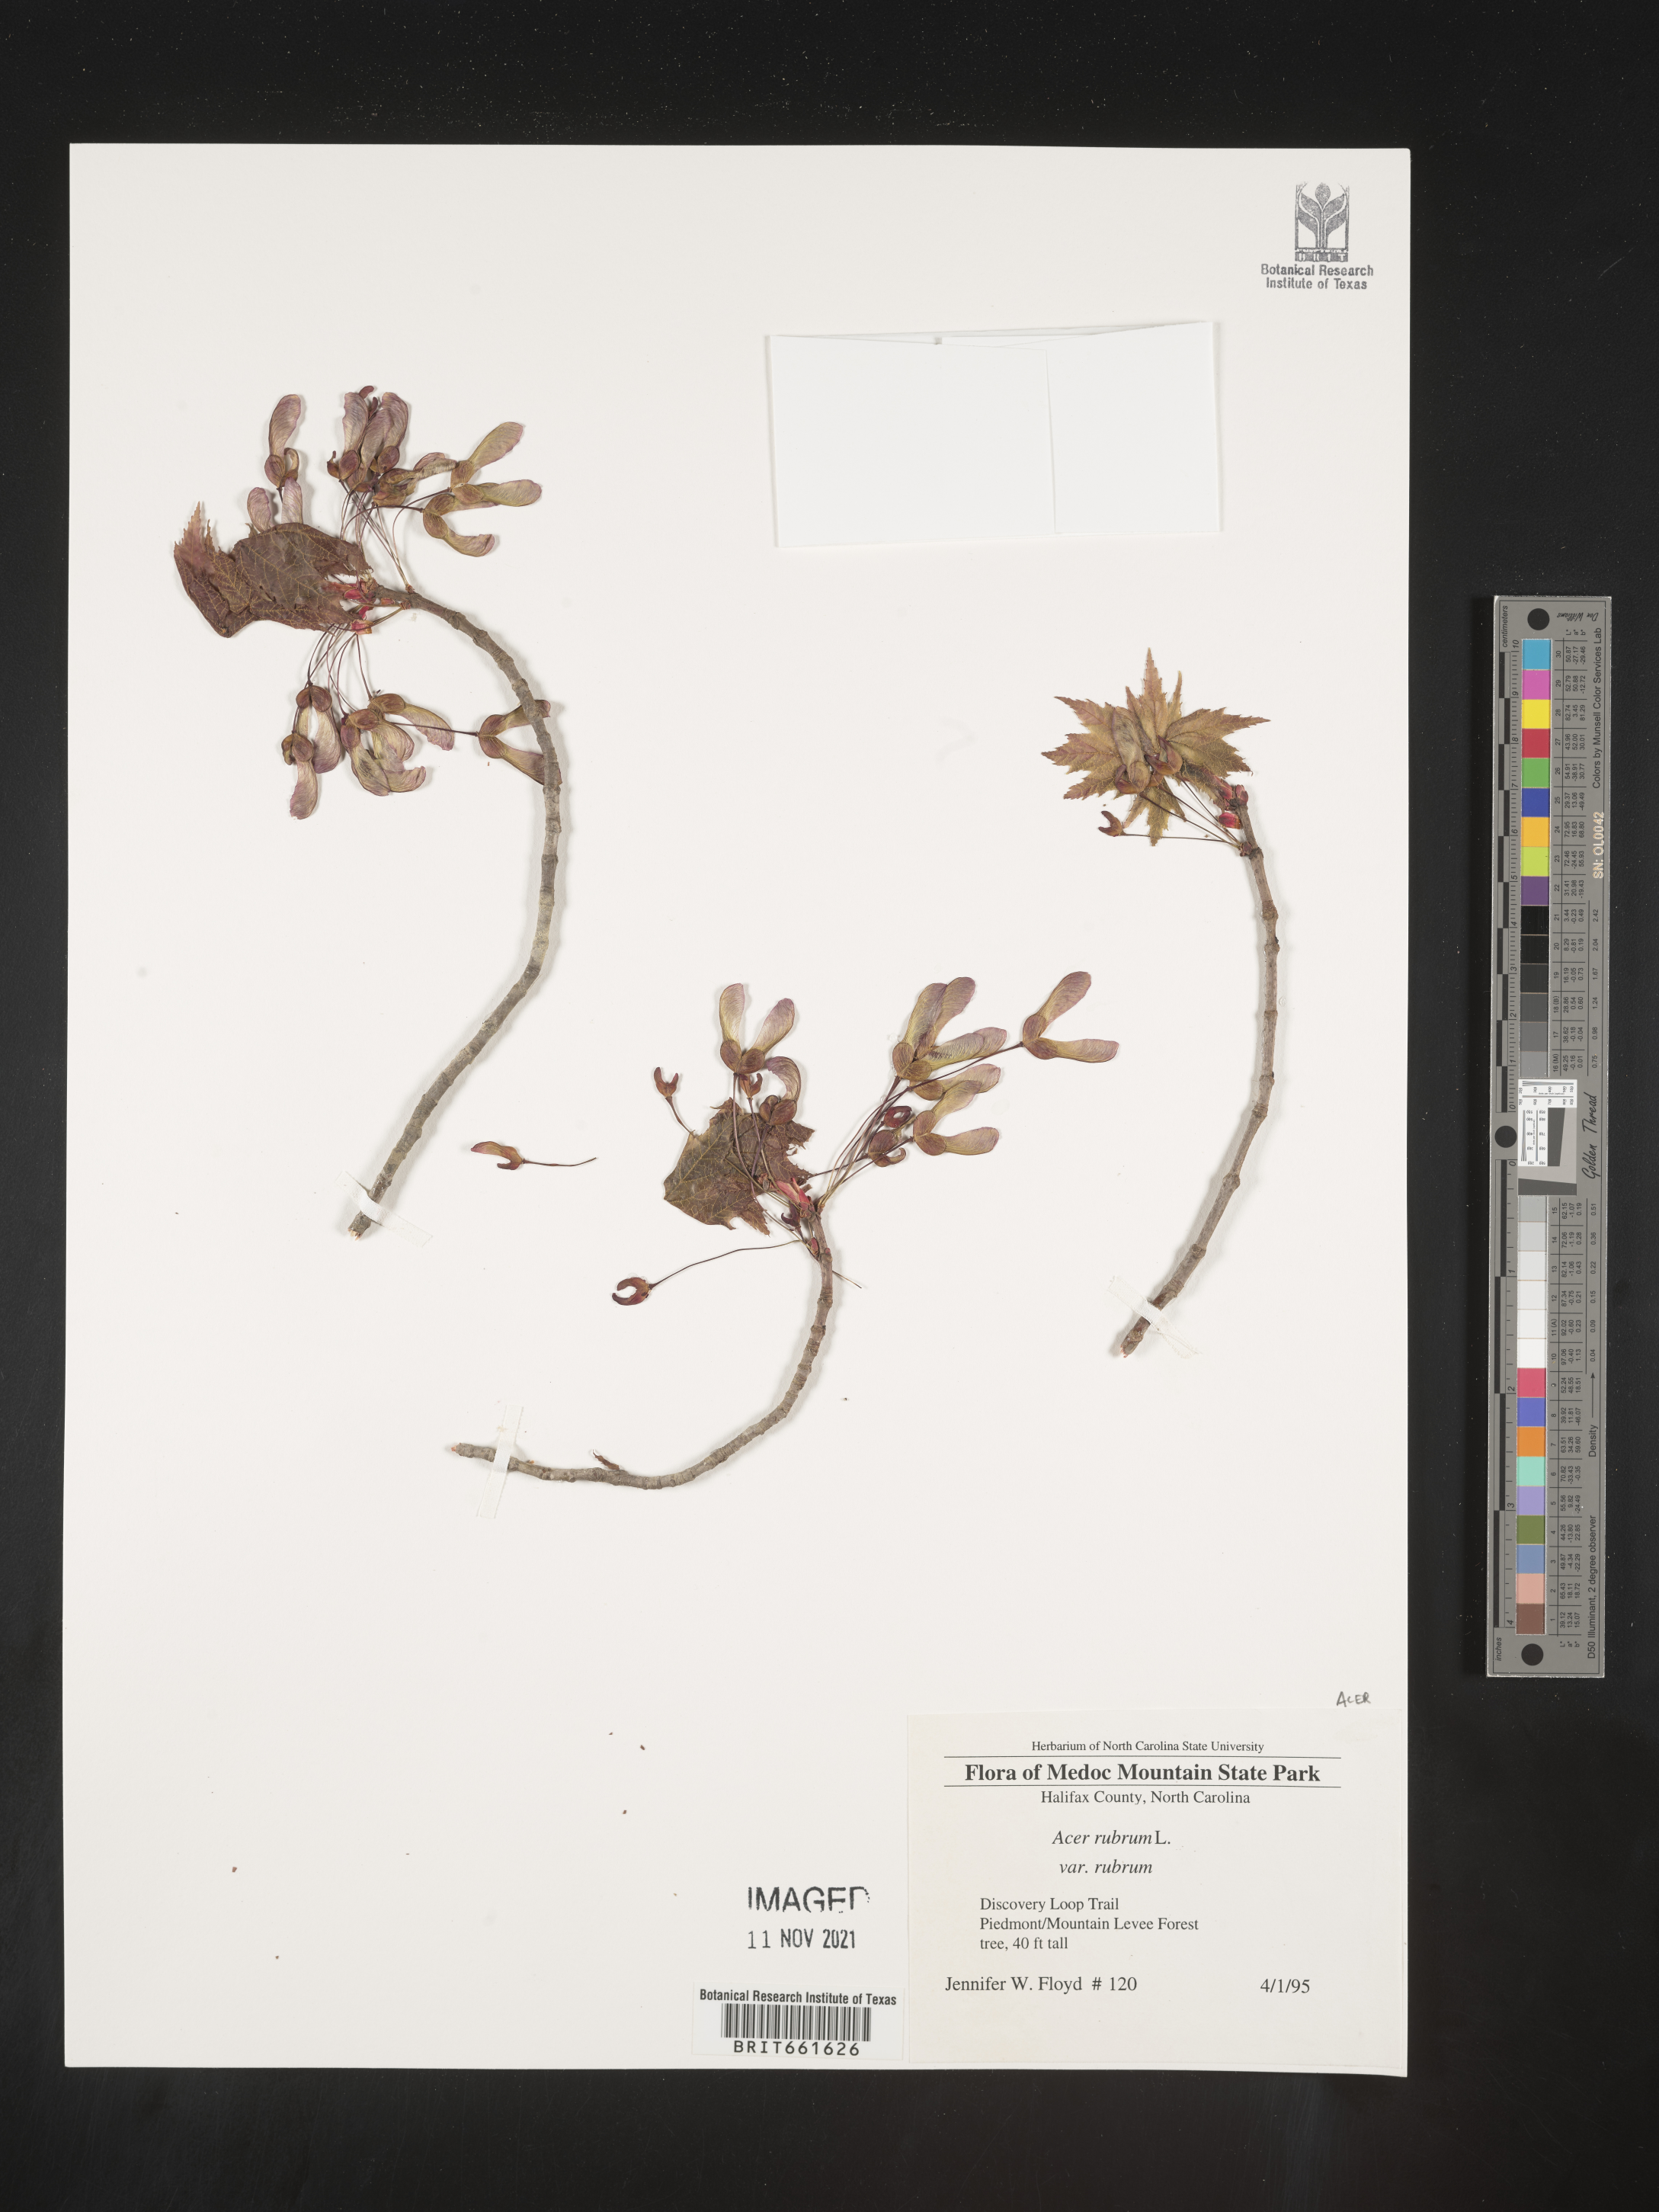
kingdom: Plantae
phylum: Tracheophyta
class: Magnoliopsida
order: Sapindales
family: Sapindaceae
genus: Acer
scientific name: Acer rubrum
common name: Red maple
